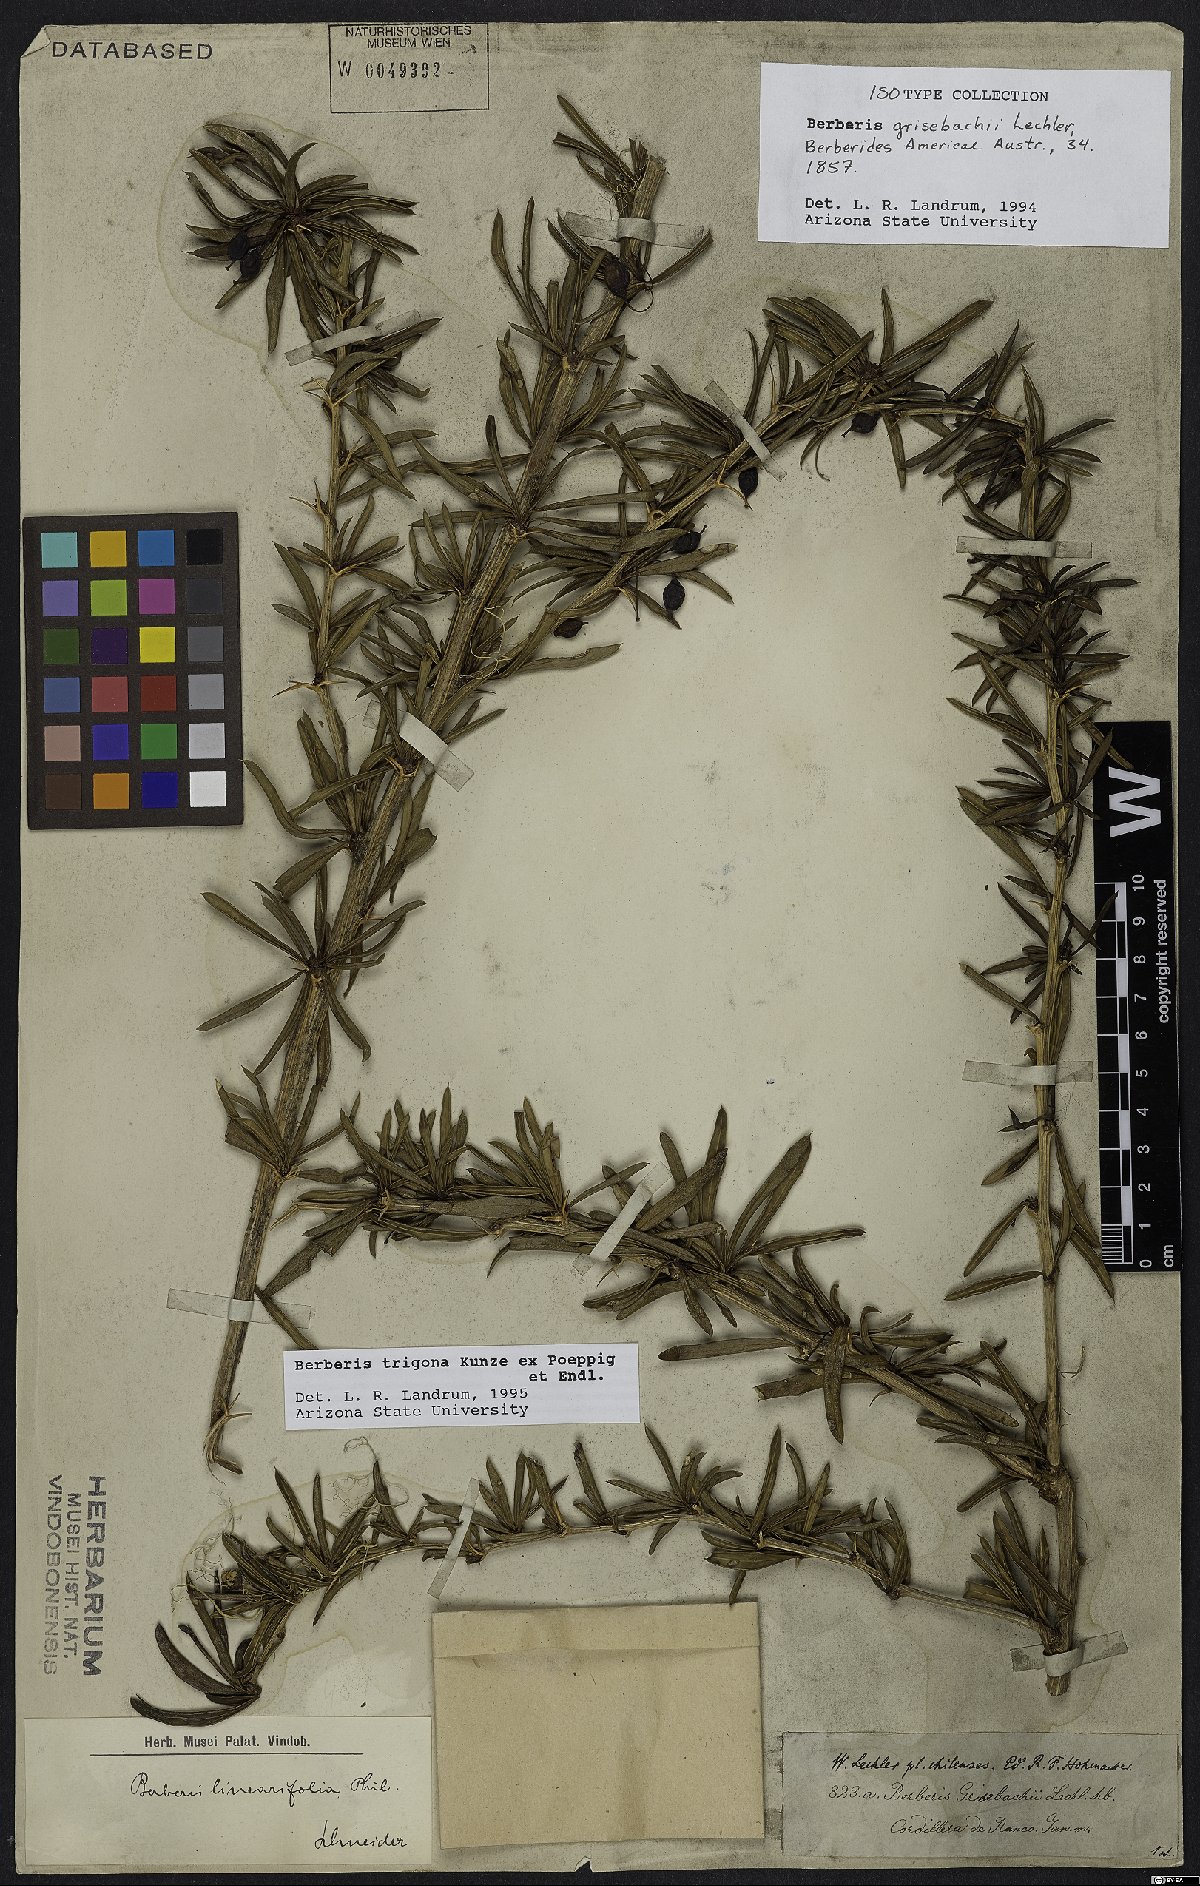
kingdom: Plantae
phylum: Tracheophyta
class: Magnoliopsida
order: Ranunculales
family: Berberidaceae
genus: Berberis
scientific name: Berberis trigona
